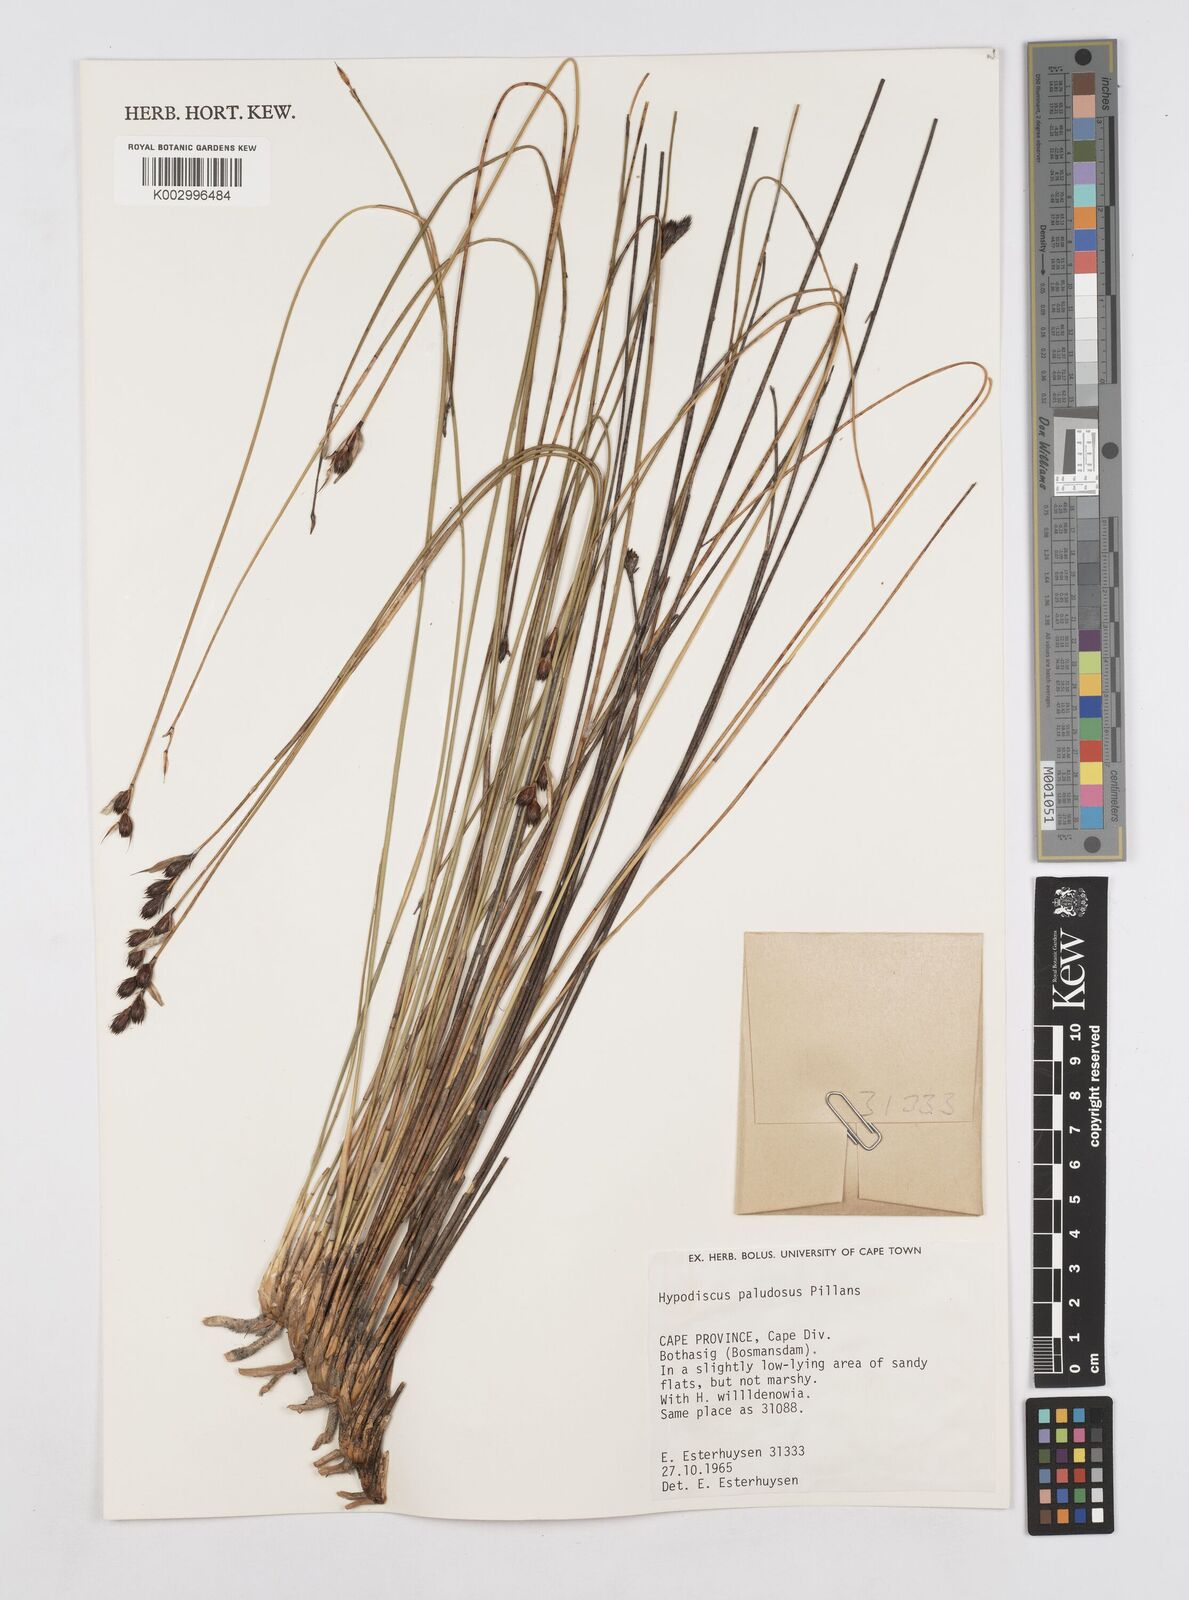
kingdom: Plantae
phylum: Tracheophyta
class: Liliopsida
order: Poales
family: Restionaceae
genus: Hypodiscus
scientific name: Hypodiscus rugosus
